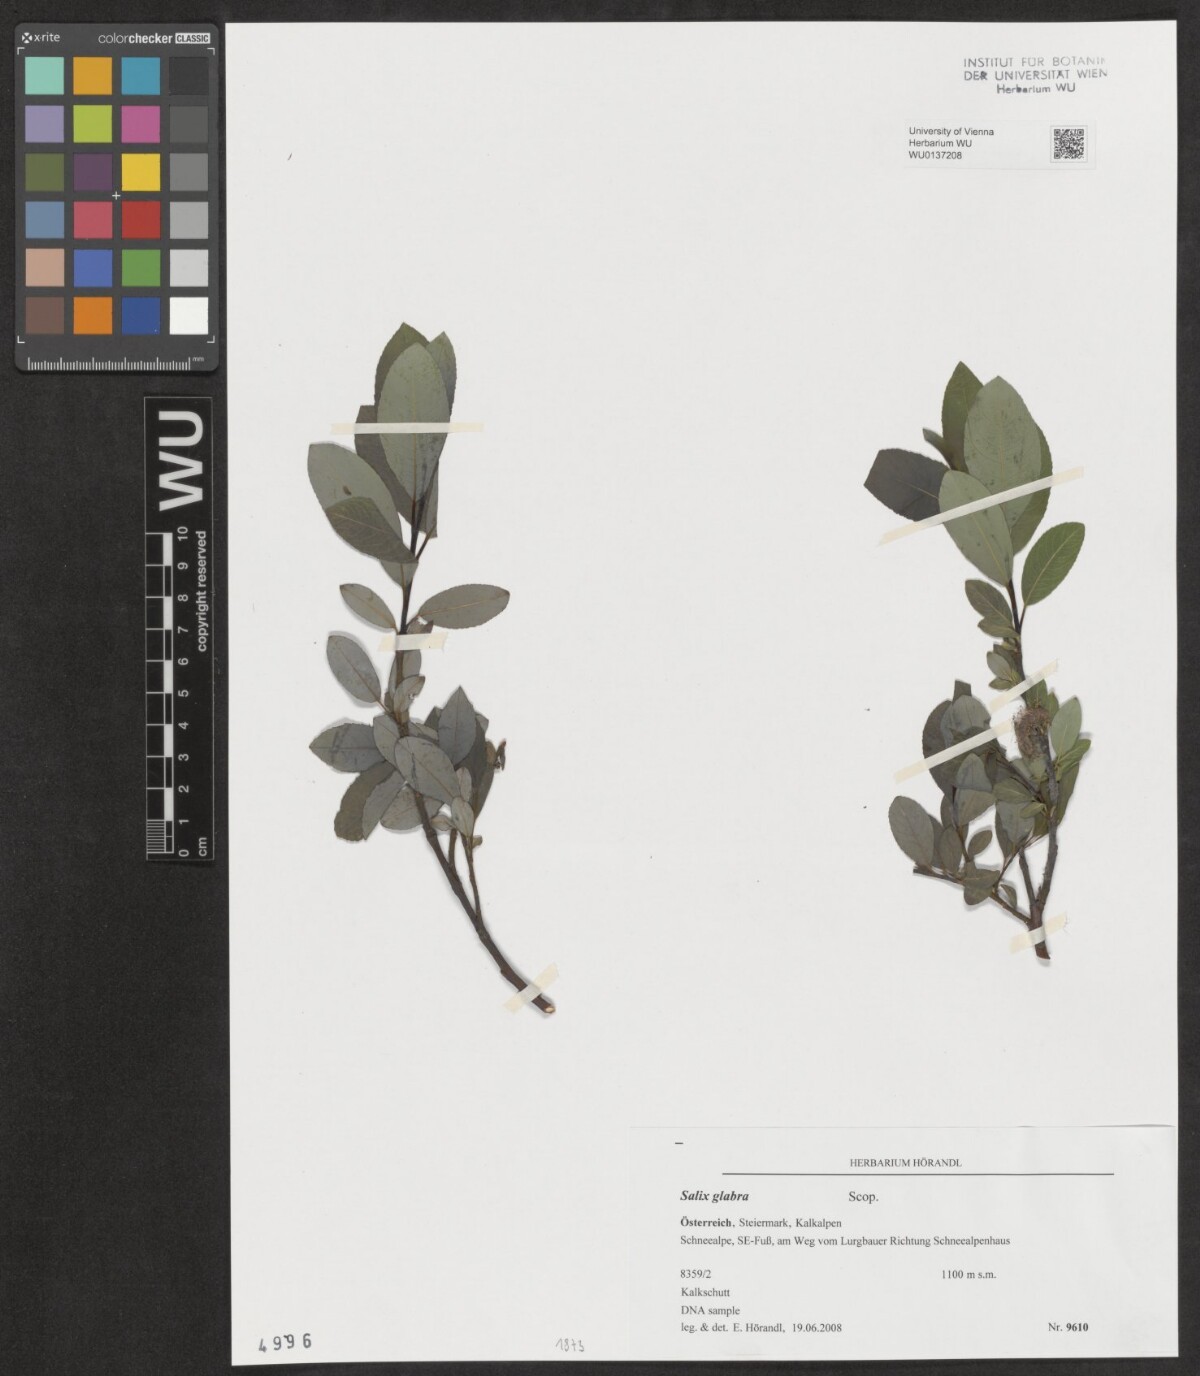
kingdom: Plantae
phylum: Tracheophyta
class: Magnoliopsida
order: Malpighiales
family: Salicaceae
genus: Salix
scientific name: Salix glabra
